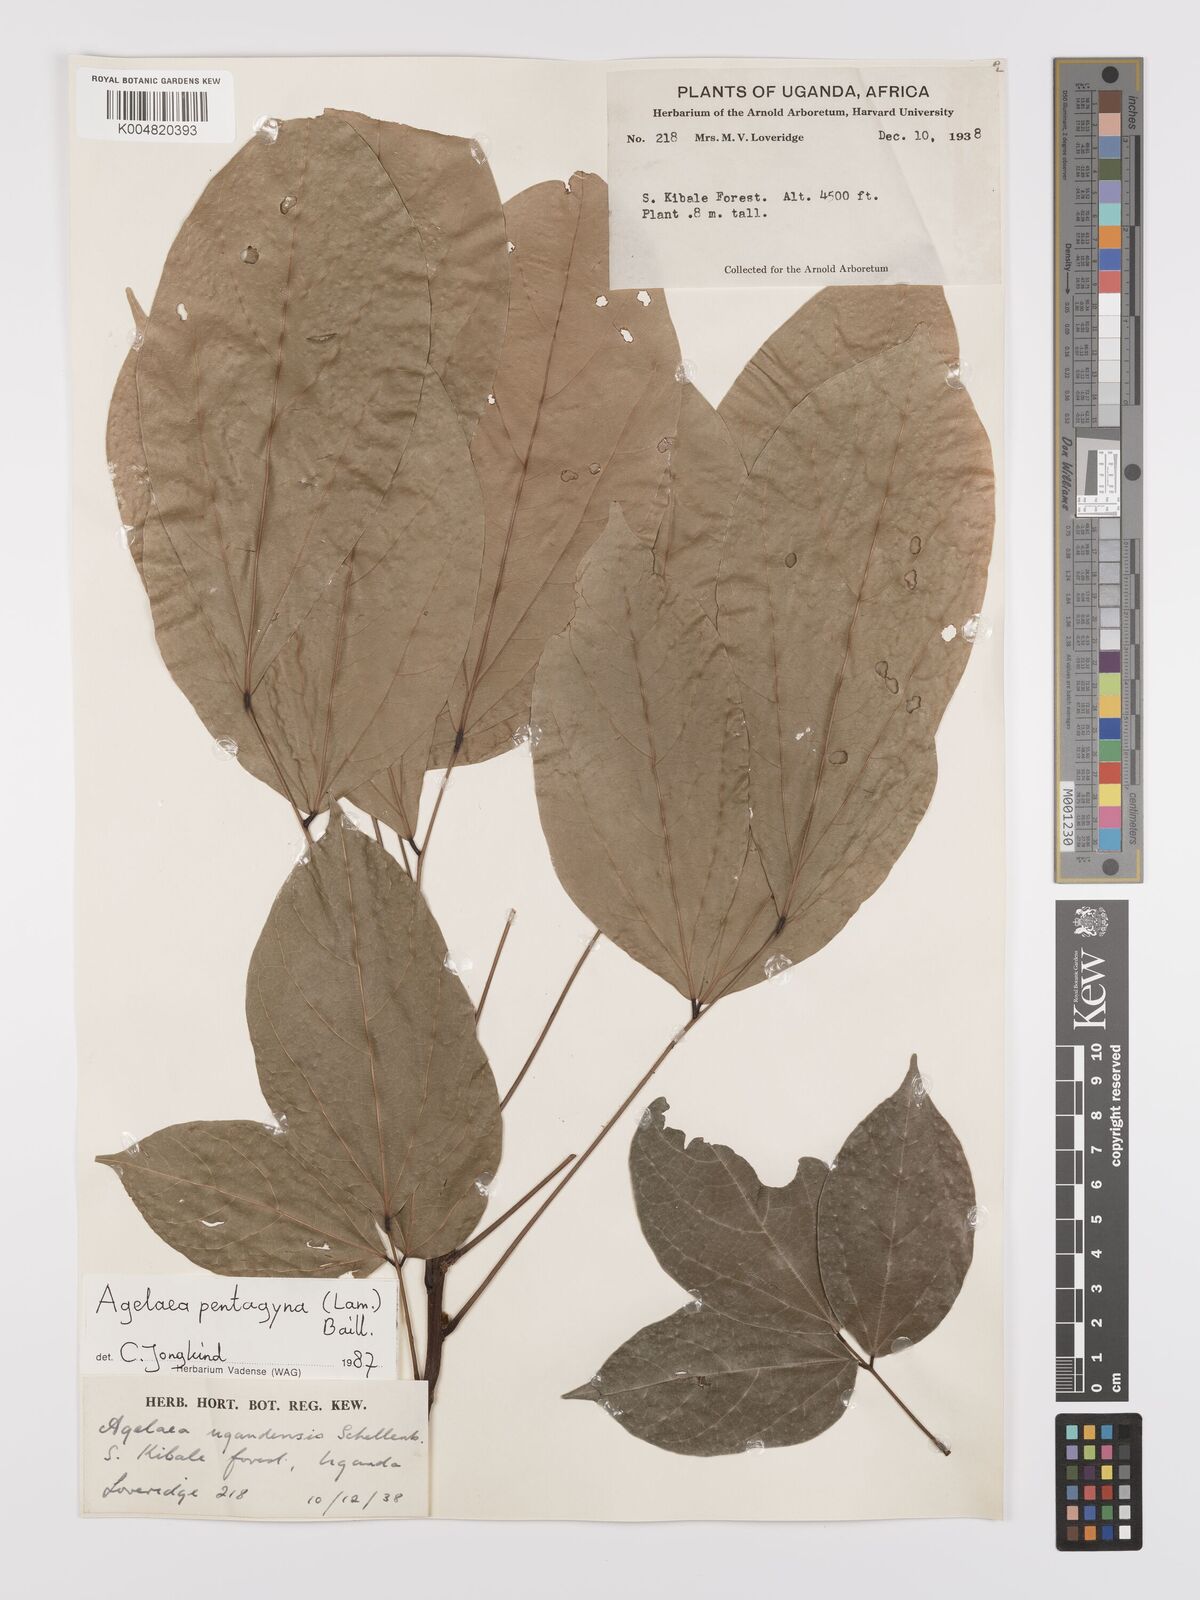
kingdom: Plantae
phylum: Tracheophyta
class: Magnoliopsida
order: Oxalidales
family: Connaraceae
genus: Agelaea
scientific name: Agelaea pentagyna
